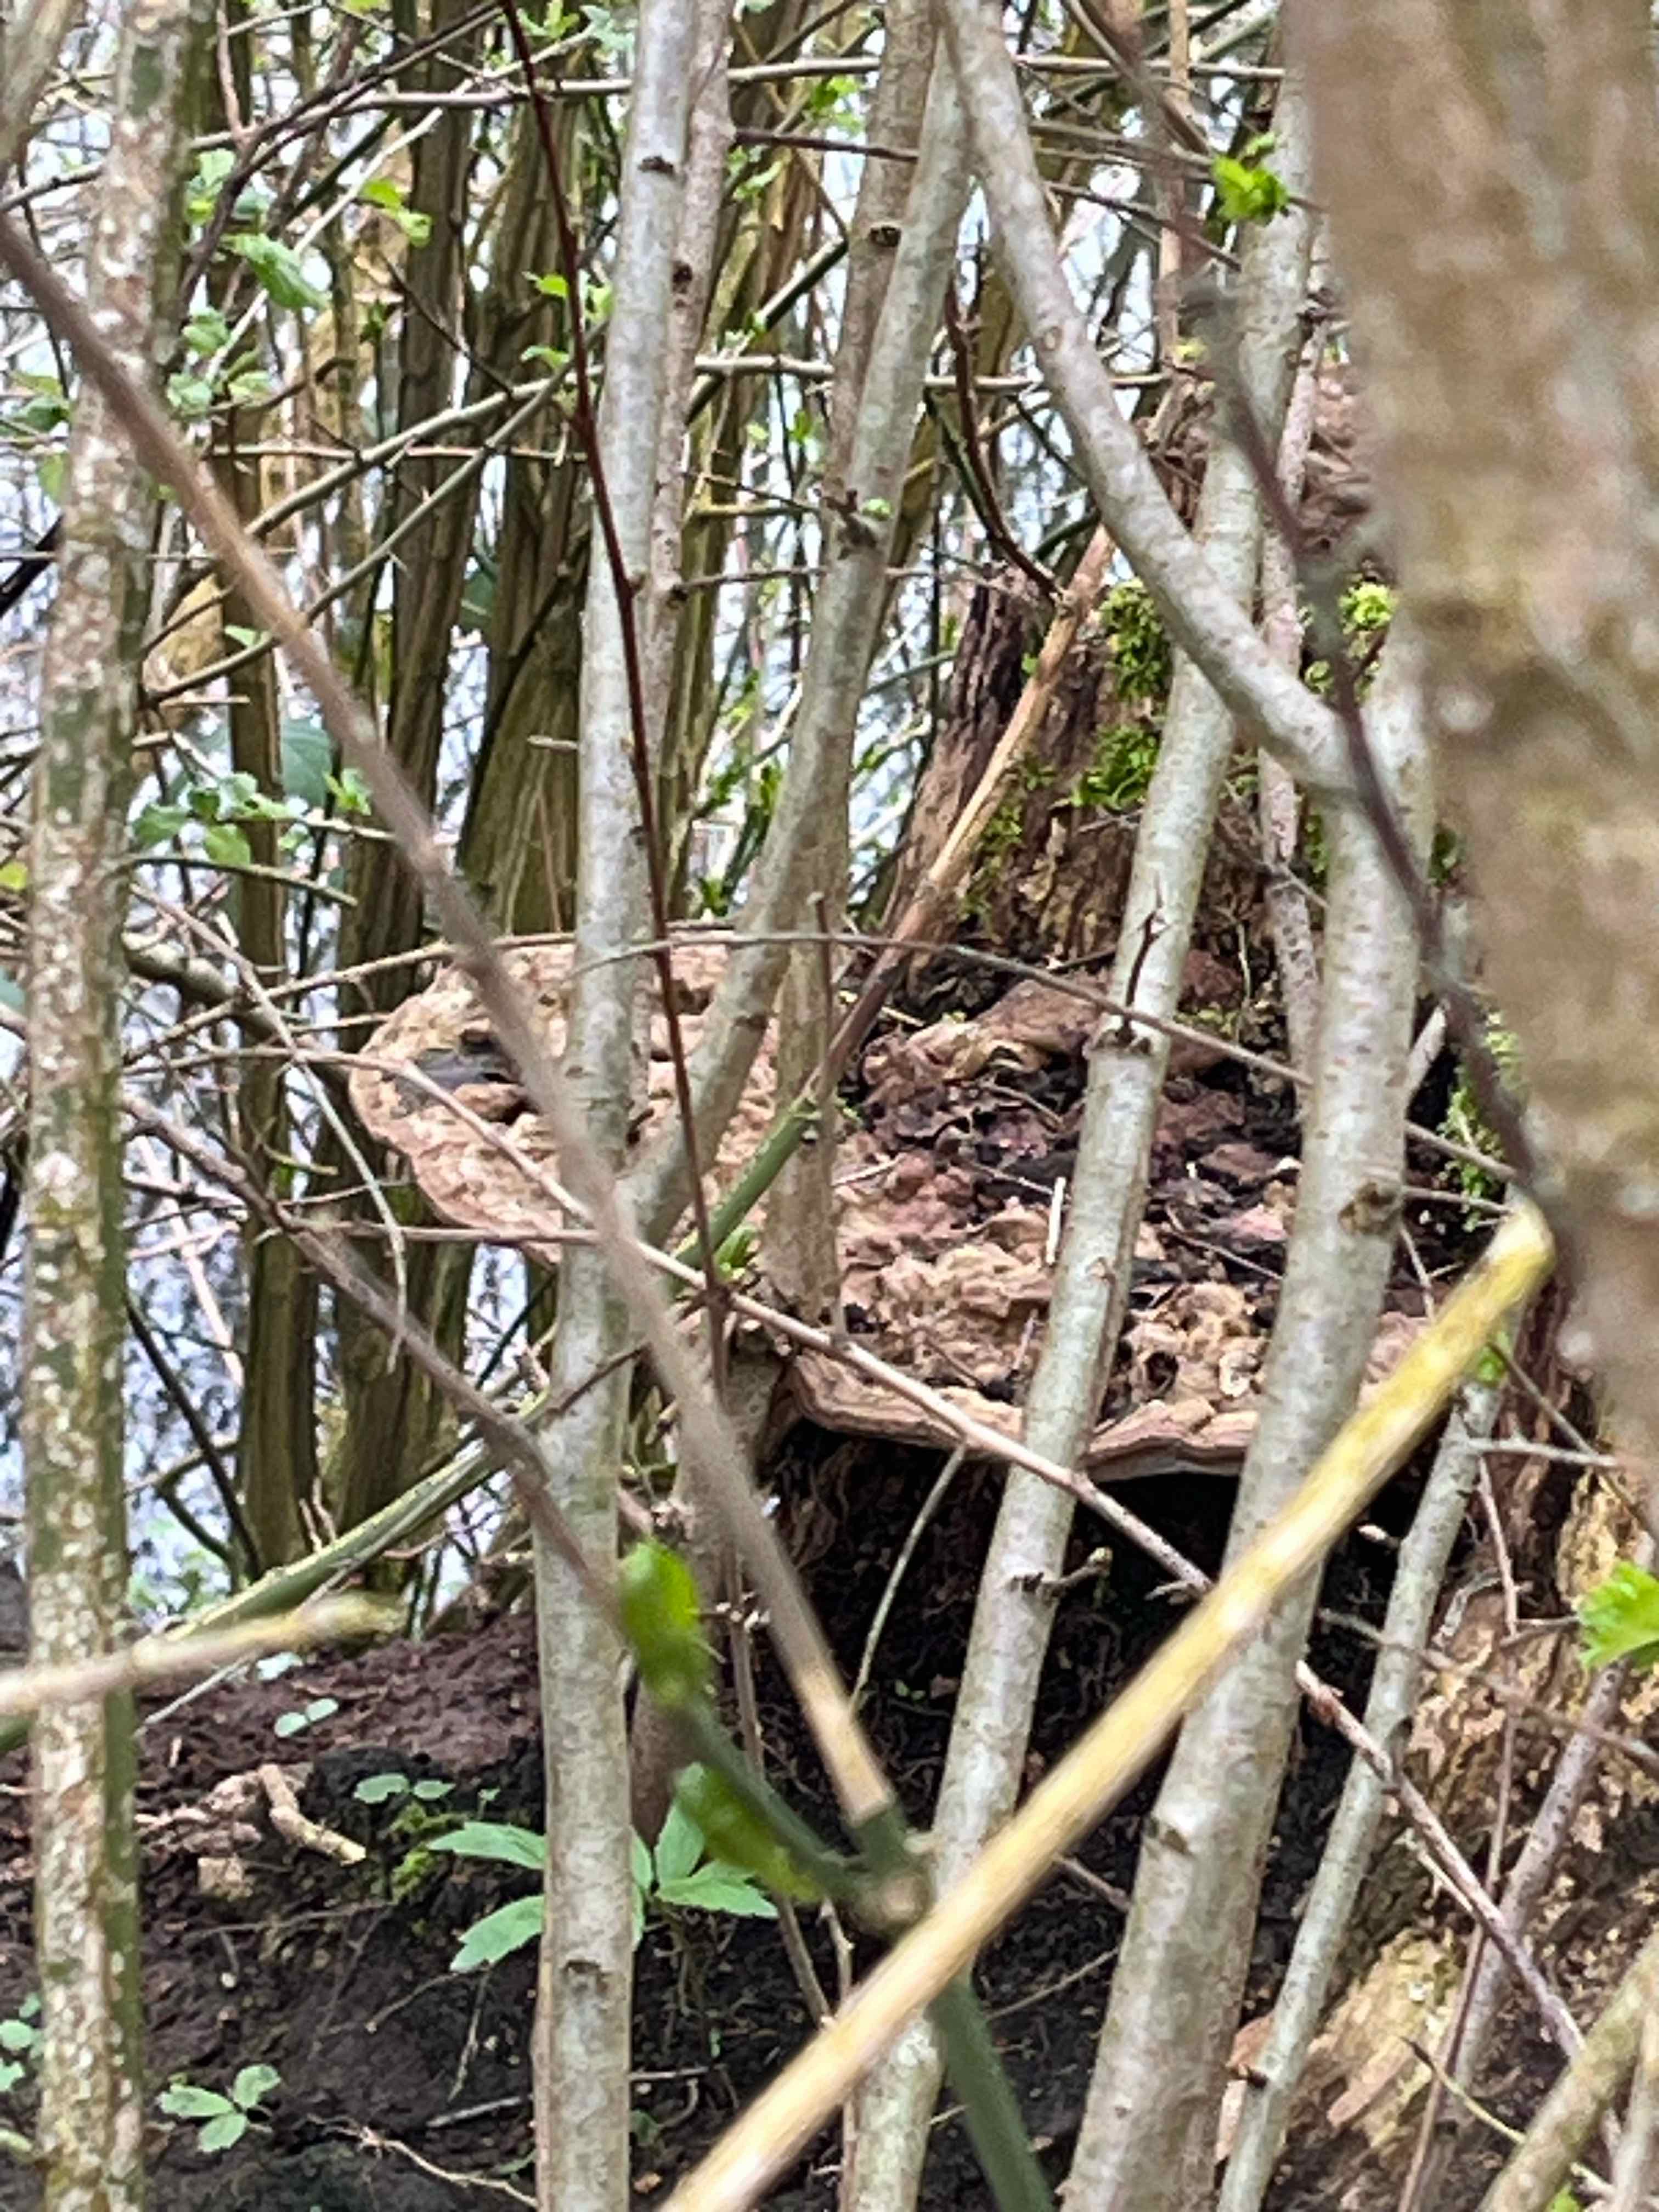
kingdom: Fungi
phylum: Basidiomycota
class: Agaricomycetes
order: Polyporales
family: Polyporaceae
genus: Ganoderma
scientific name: Ganoderma applanatum
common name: flad lakporesvamp
